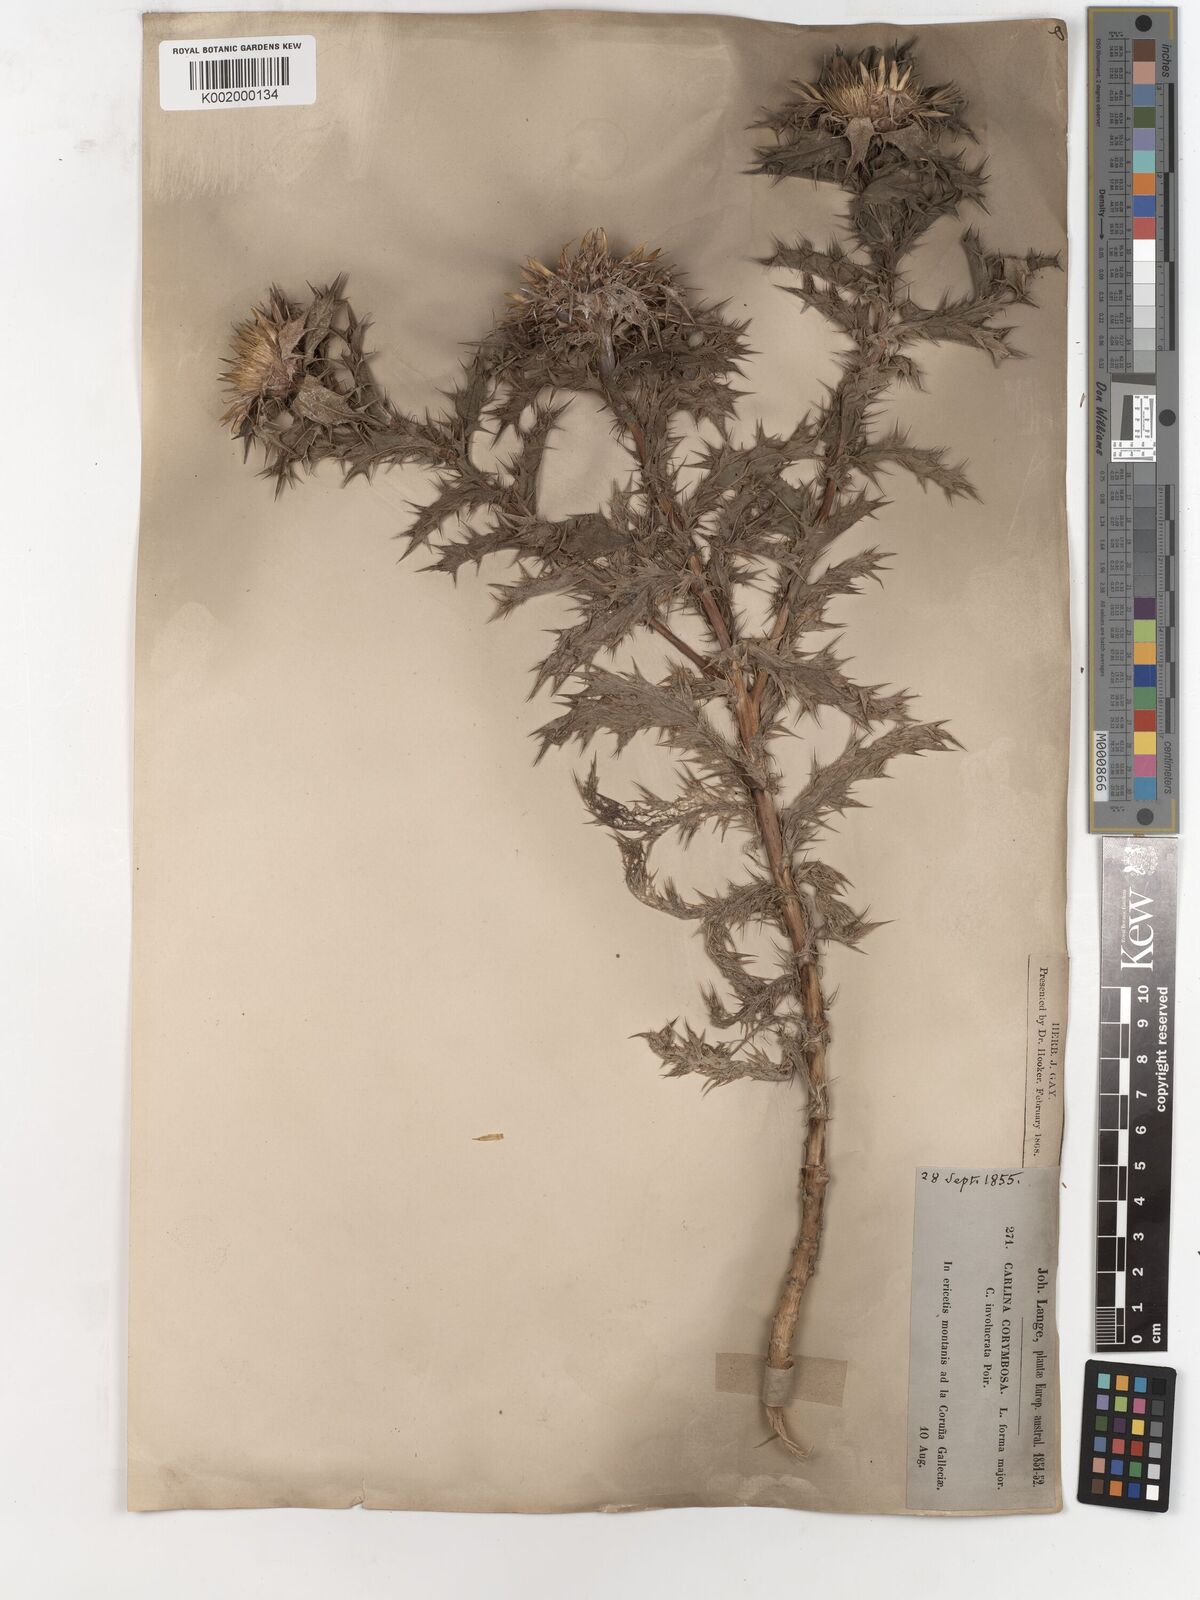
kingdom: Plantae
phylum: Tracheophyta
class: Magnoliopsida
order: Asterales
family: Asteraceae
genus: Carlina
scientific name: Carlina corymbosa
